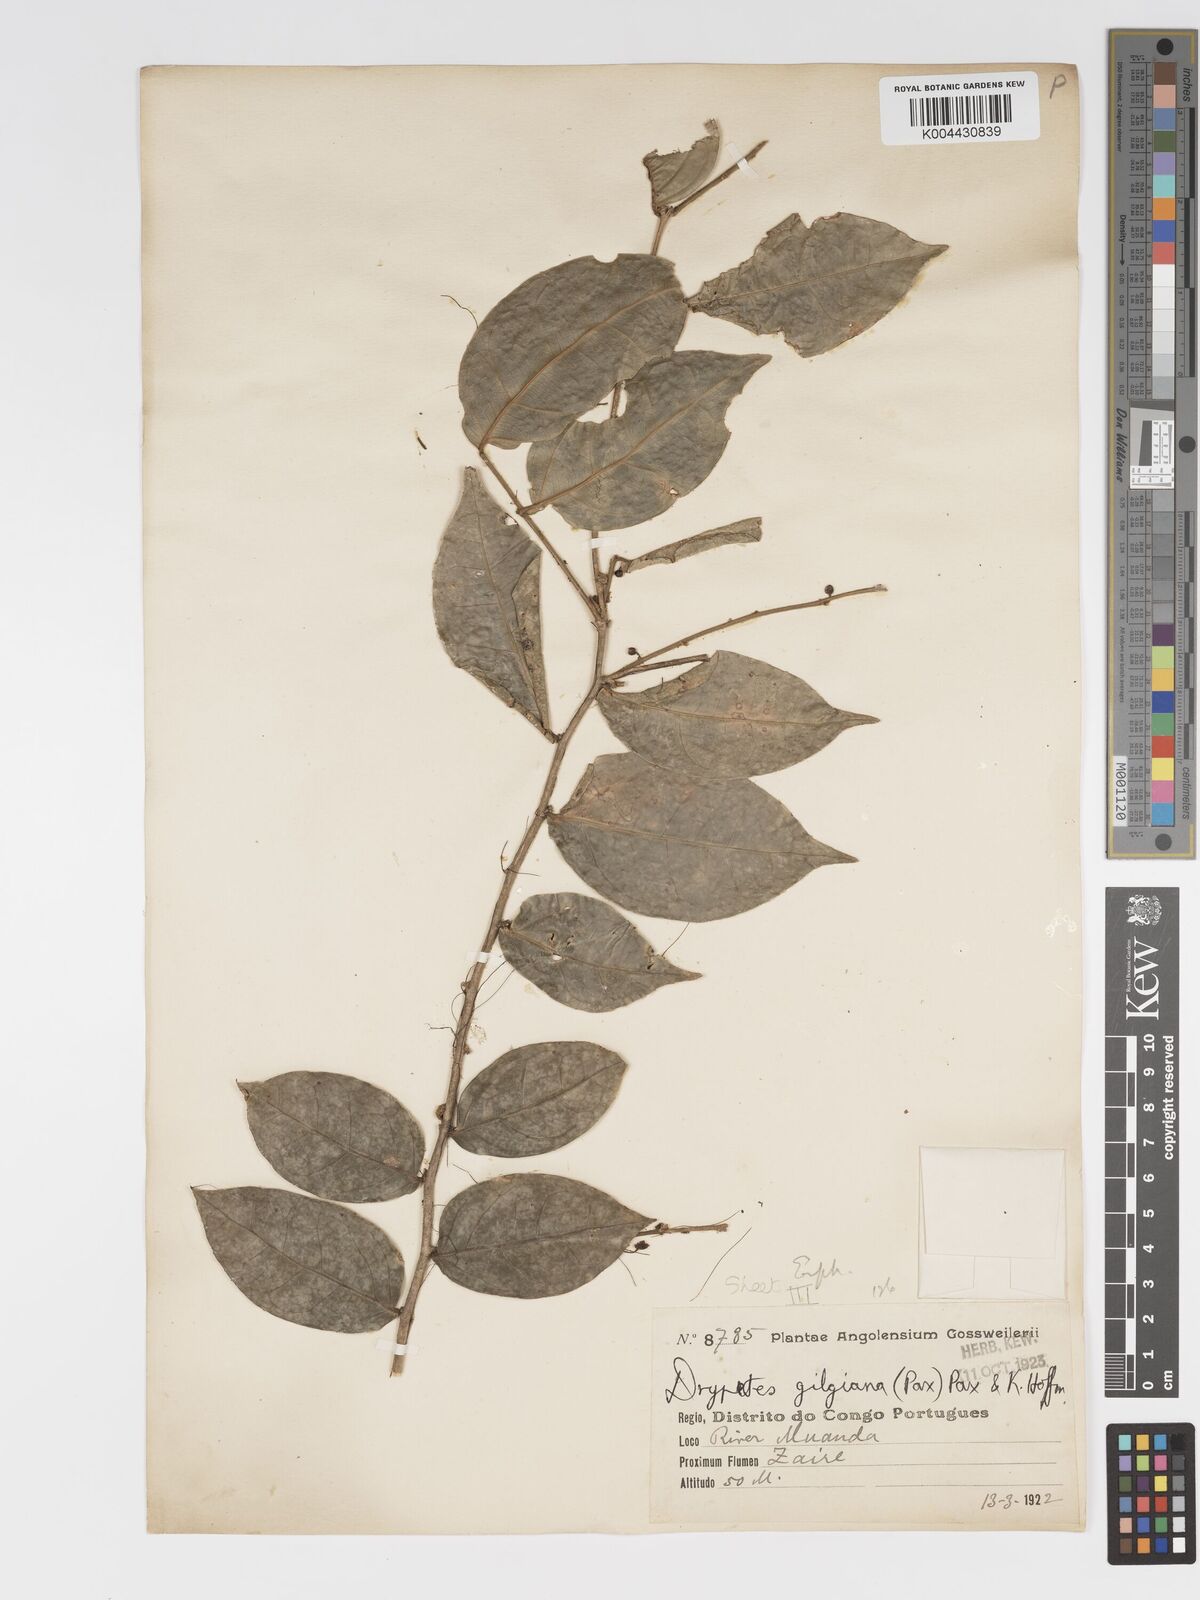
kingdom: Plantae
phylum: Tracheophyta
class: Magnoliopsida
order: Malpighiales
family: Putranjivaceae
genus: Drypetes
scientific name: Drypetes gilgiana
